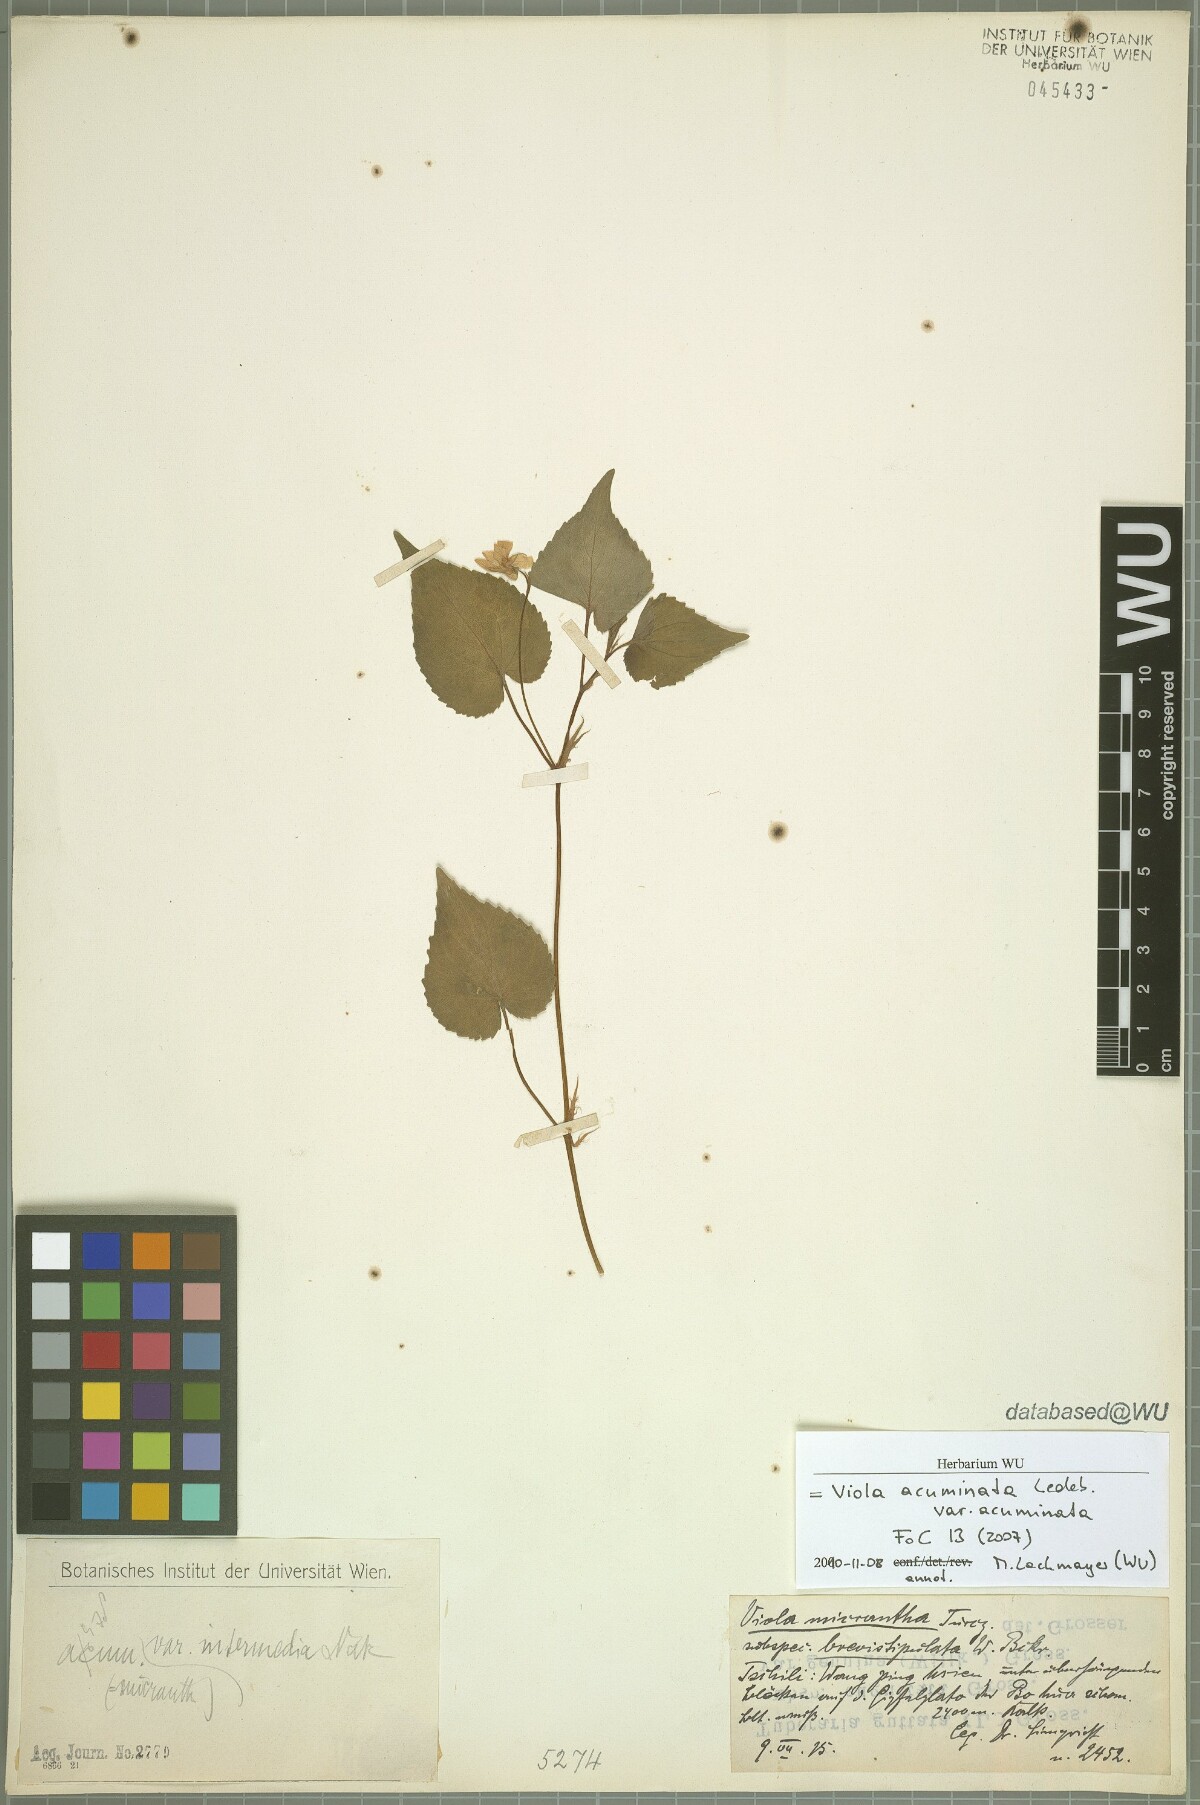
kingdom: Plantae
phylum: Tracheophyta
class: Magnoliopsida
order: Malpighiales
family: Violaceae
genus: Viola
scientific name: Viola acuminata
